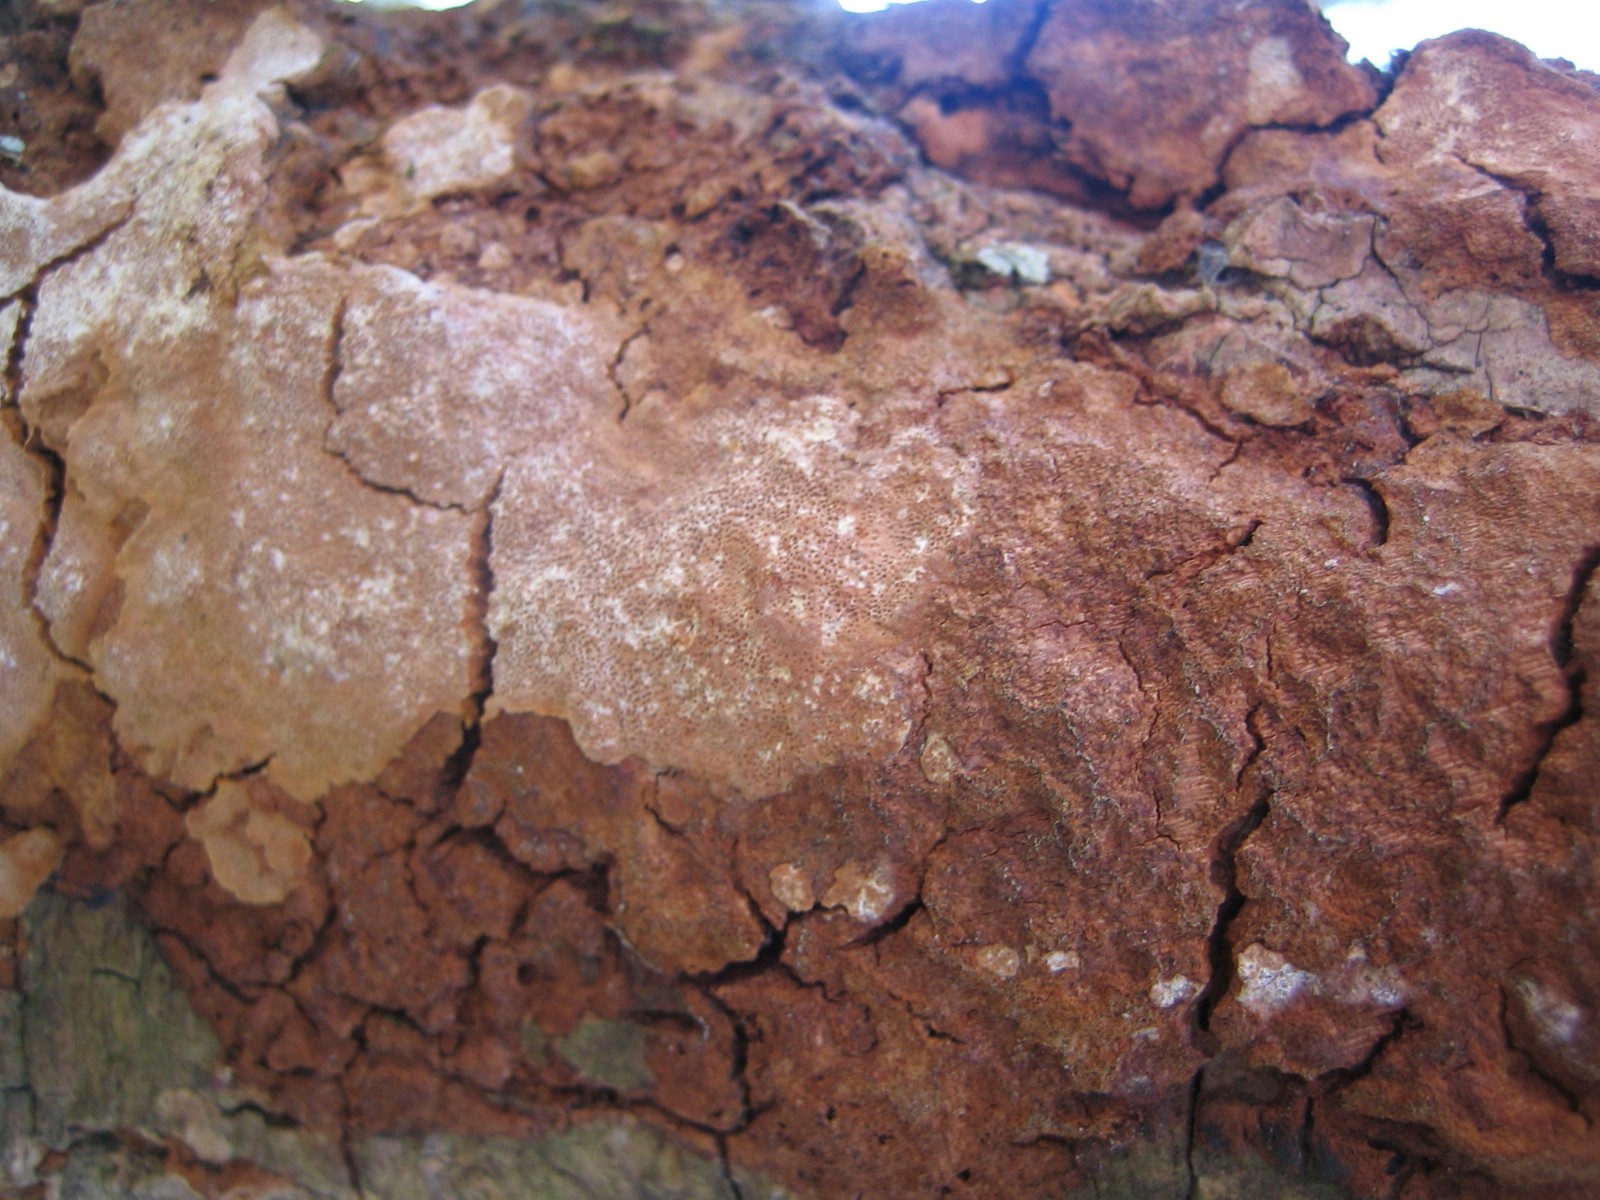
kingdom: Fungi
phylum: Basidiomycota
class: Agaricomycetes
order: Hymenochaetales
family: Hymenochaetaceae
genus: Fuscoporia
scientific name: Fuscoporia ferrea
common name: skorpe-ildporesvamp
